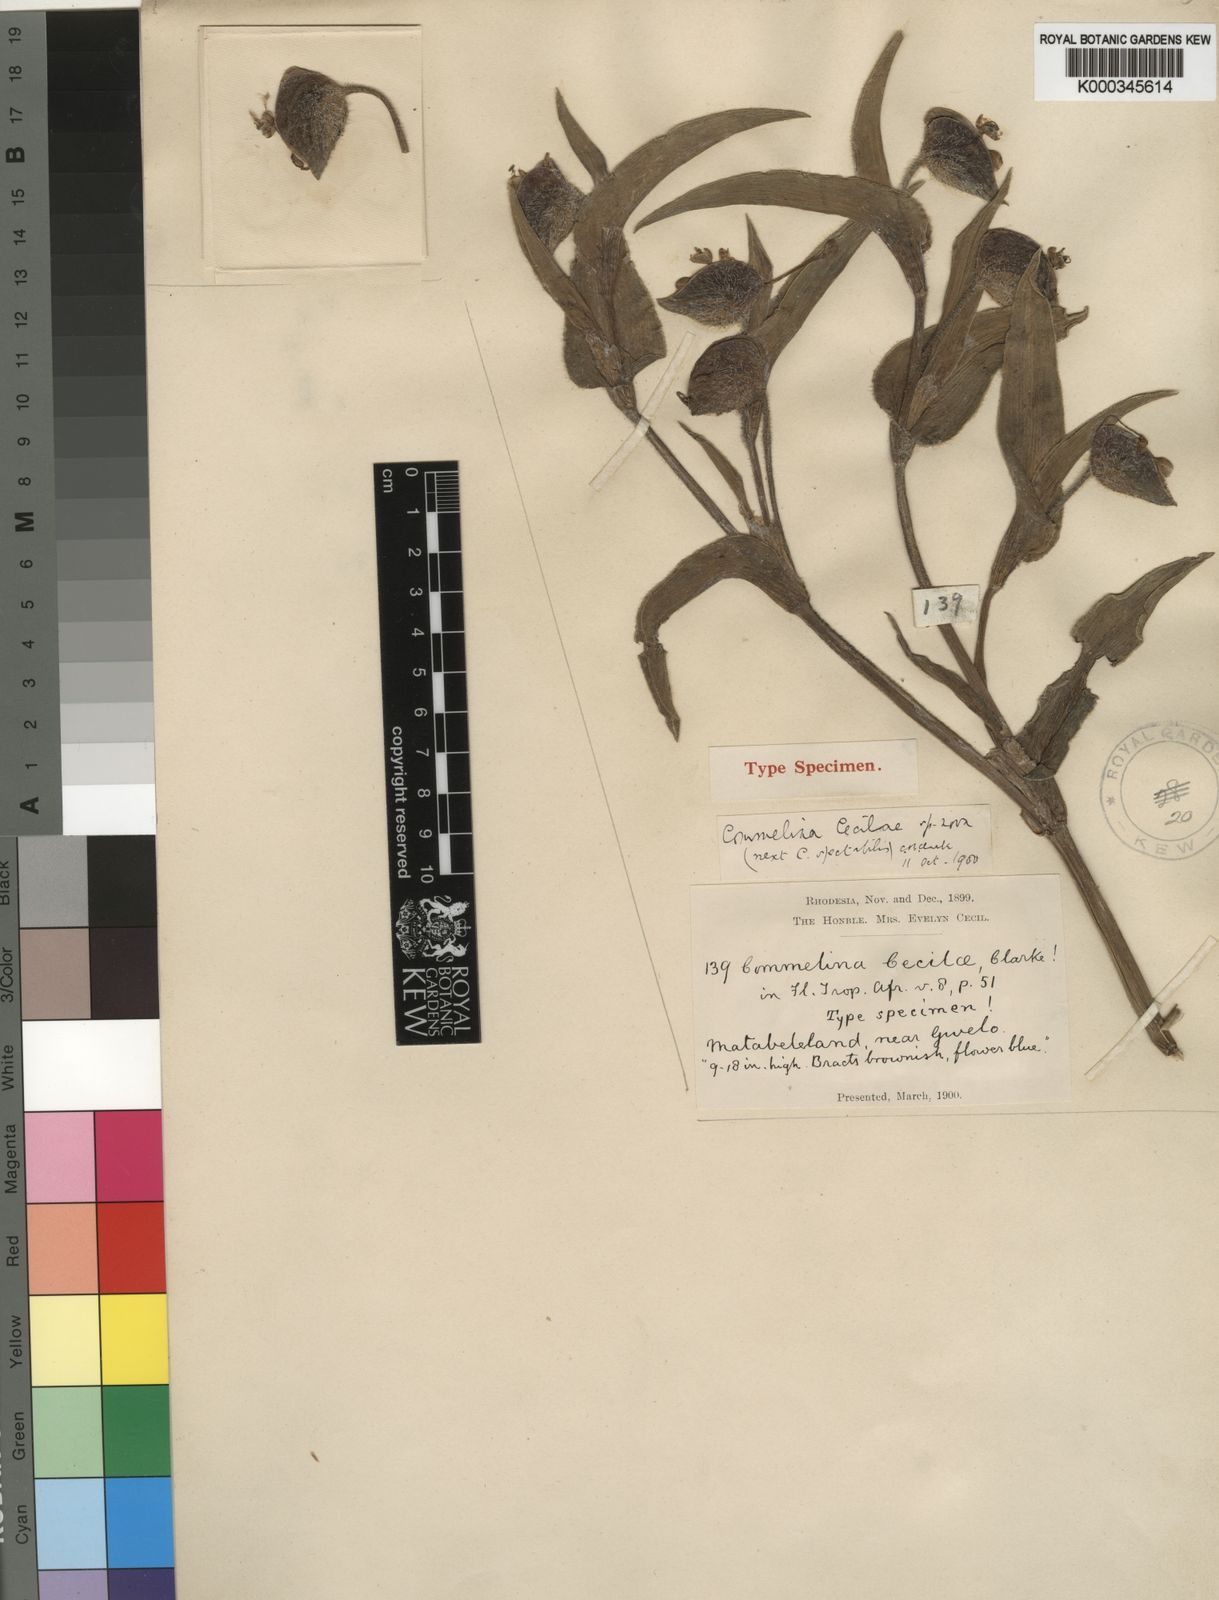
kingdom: Plantae
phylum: Tracheophyta
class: Liliopsida
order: Commelinales
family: Commelinaceae
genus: Commelina
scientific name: Commelina cecilae
